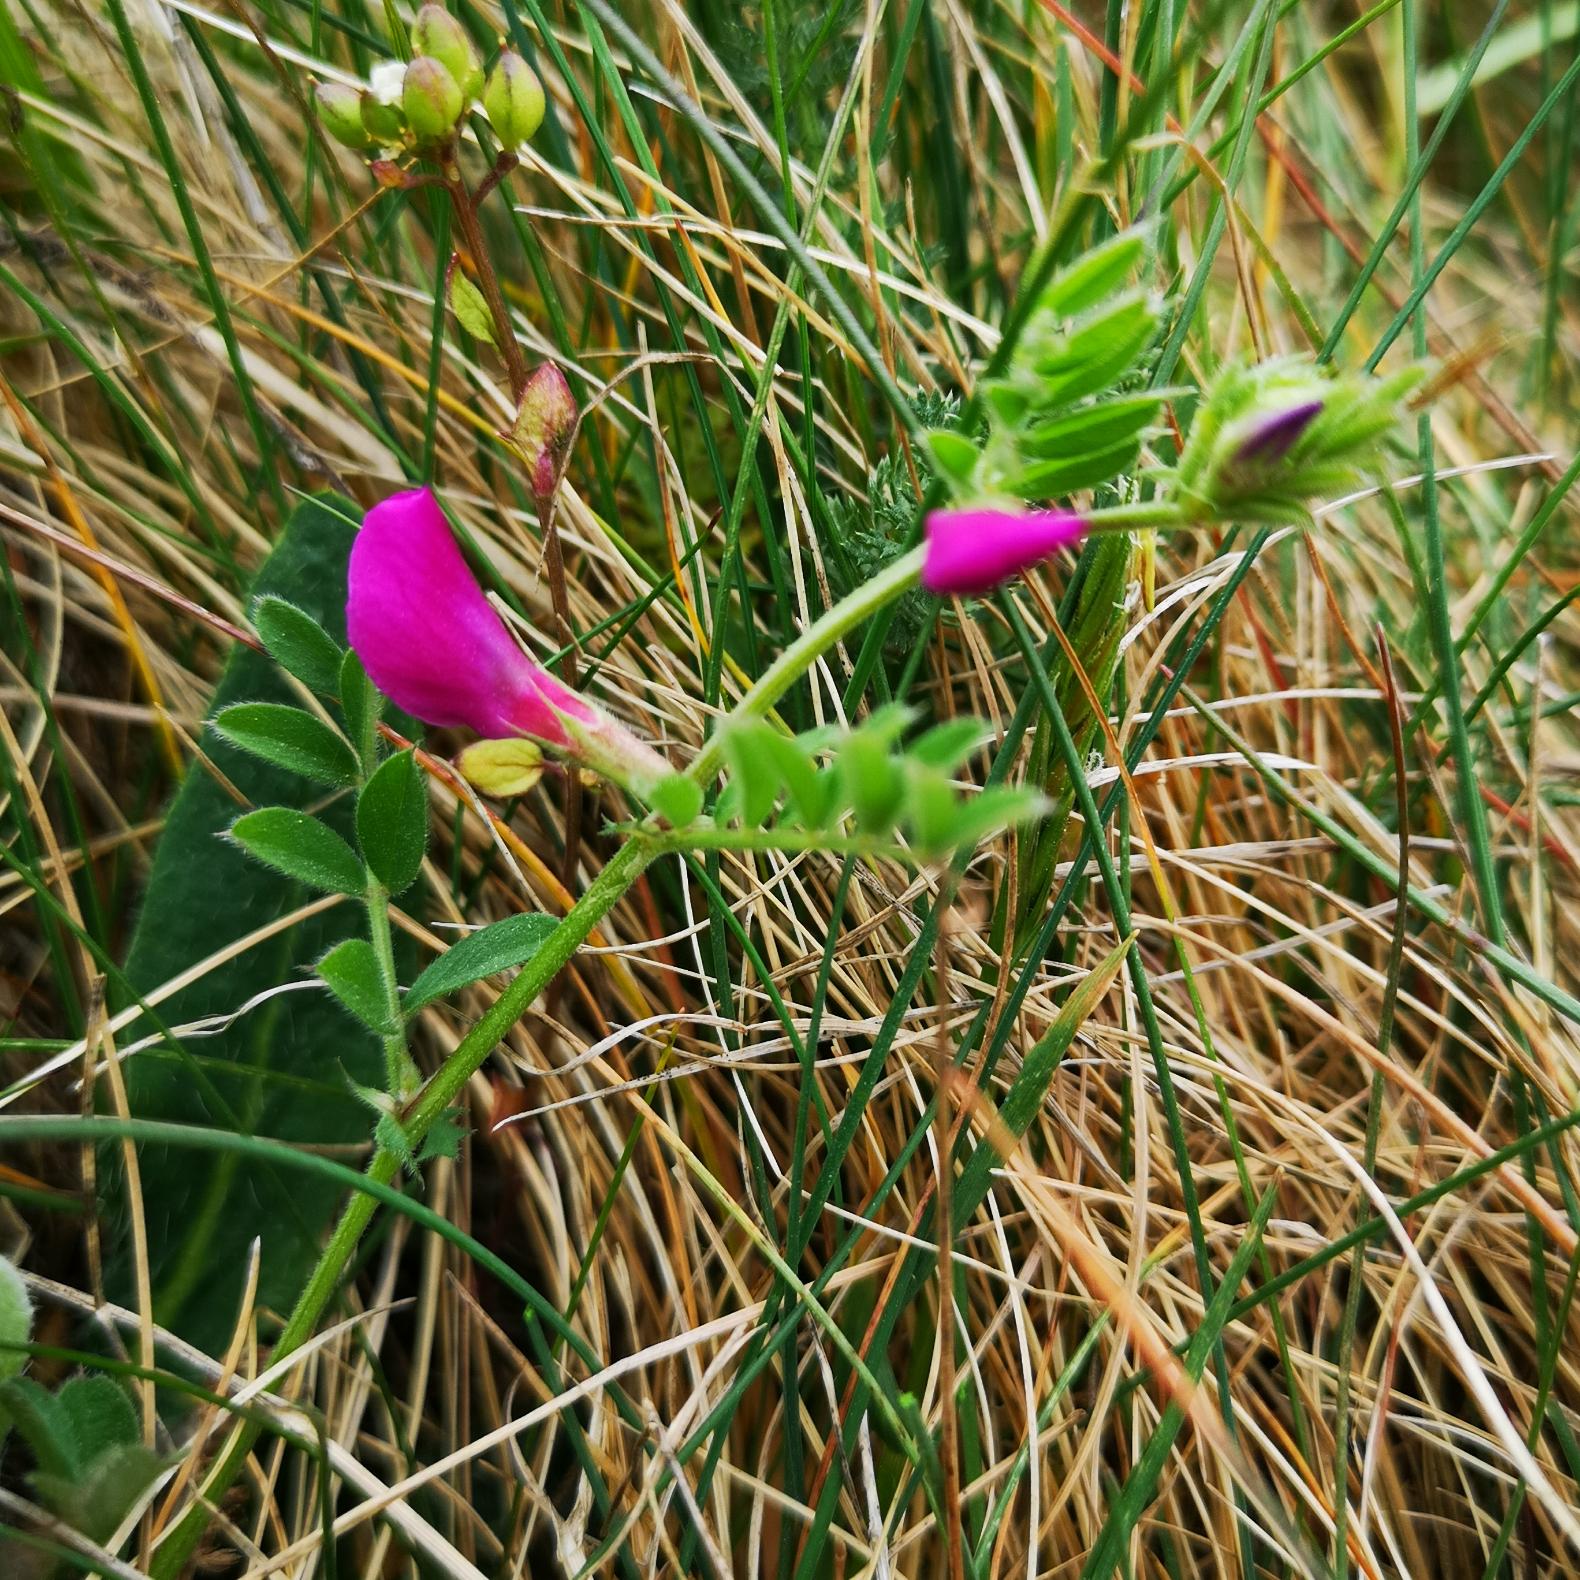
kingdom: Plantae
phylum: Tracheophyta
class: Magnoliopsida
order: Fabales
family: Fabaceae
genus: Vicia
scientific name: Vicia sativa
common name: Foder-vikke
